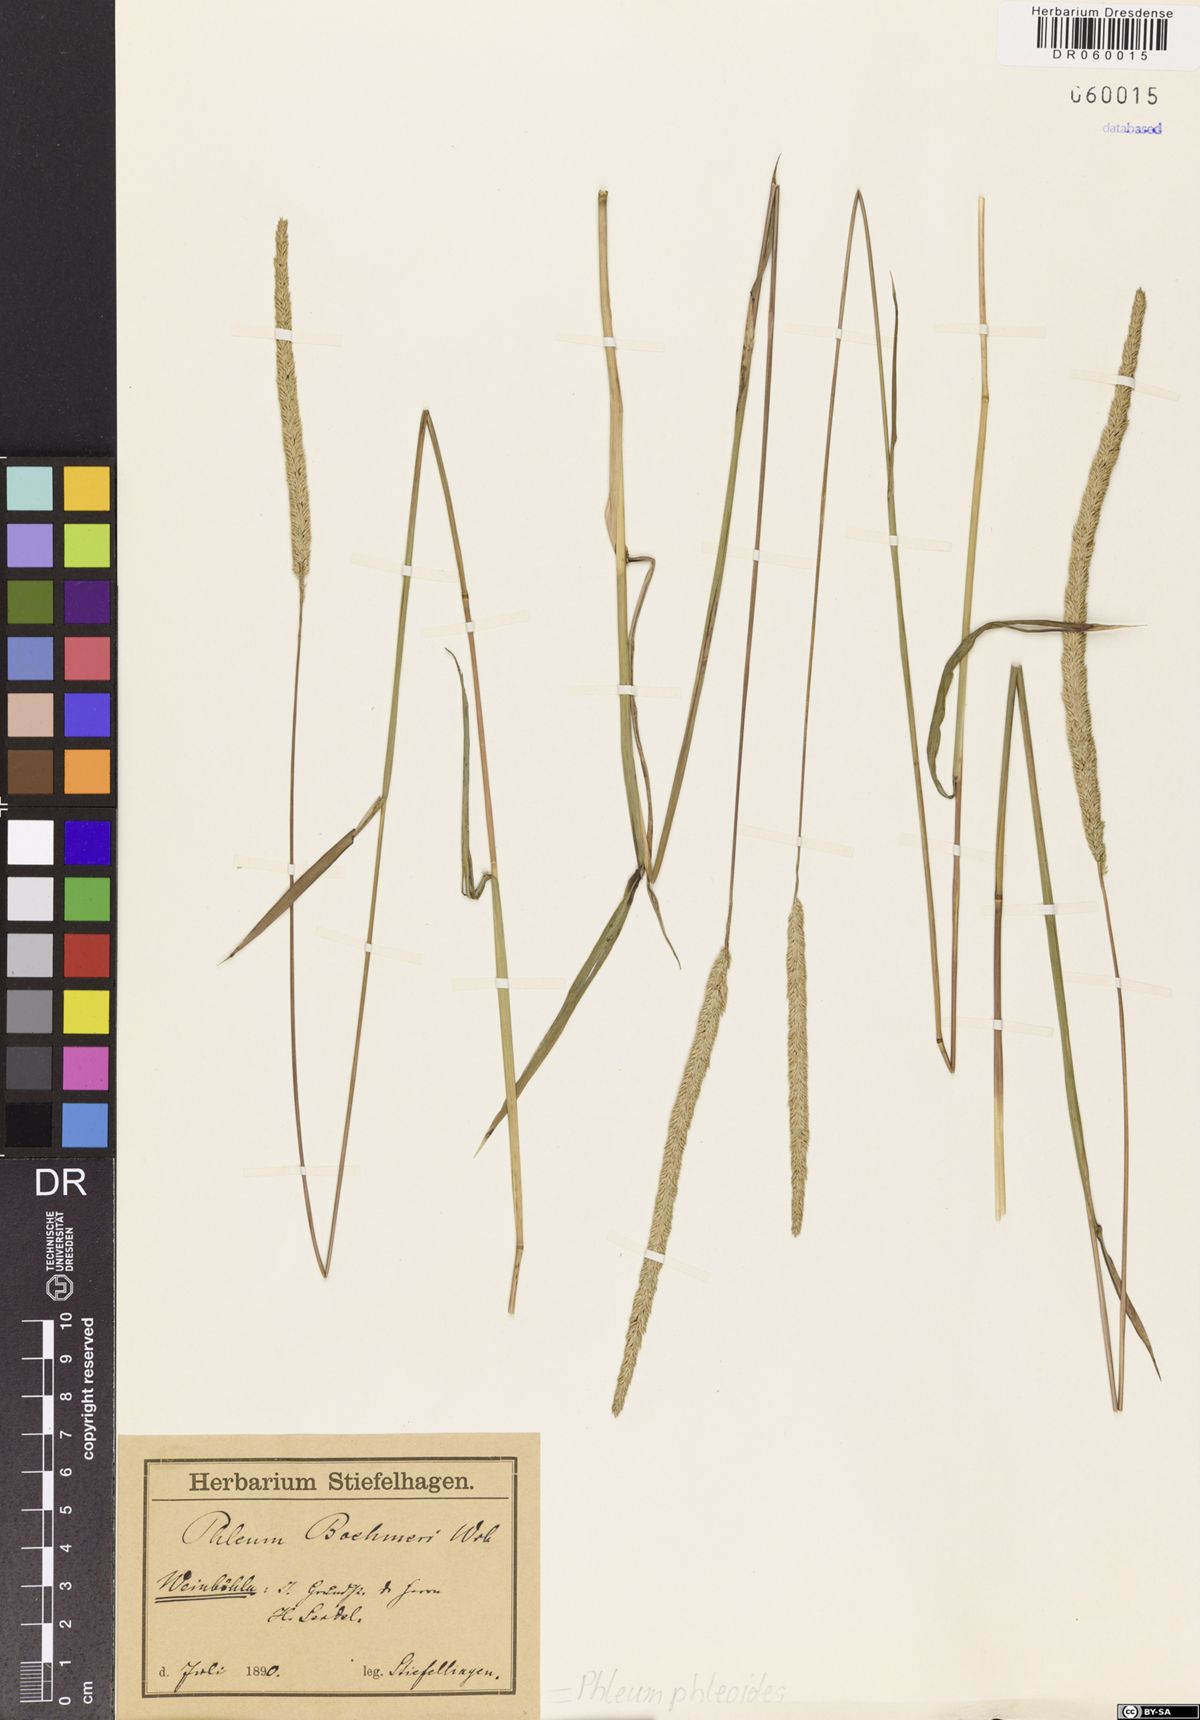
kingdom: Plantae
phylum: Tracheophyta
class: Liliopsida
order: Poales
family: Poaceae
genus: Phleum
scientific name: Phleum phleoides
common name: Purple-stem cat's-tail
